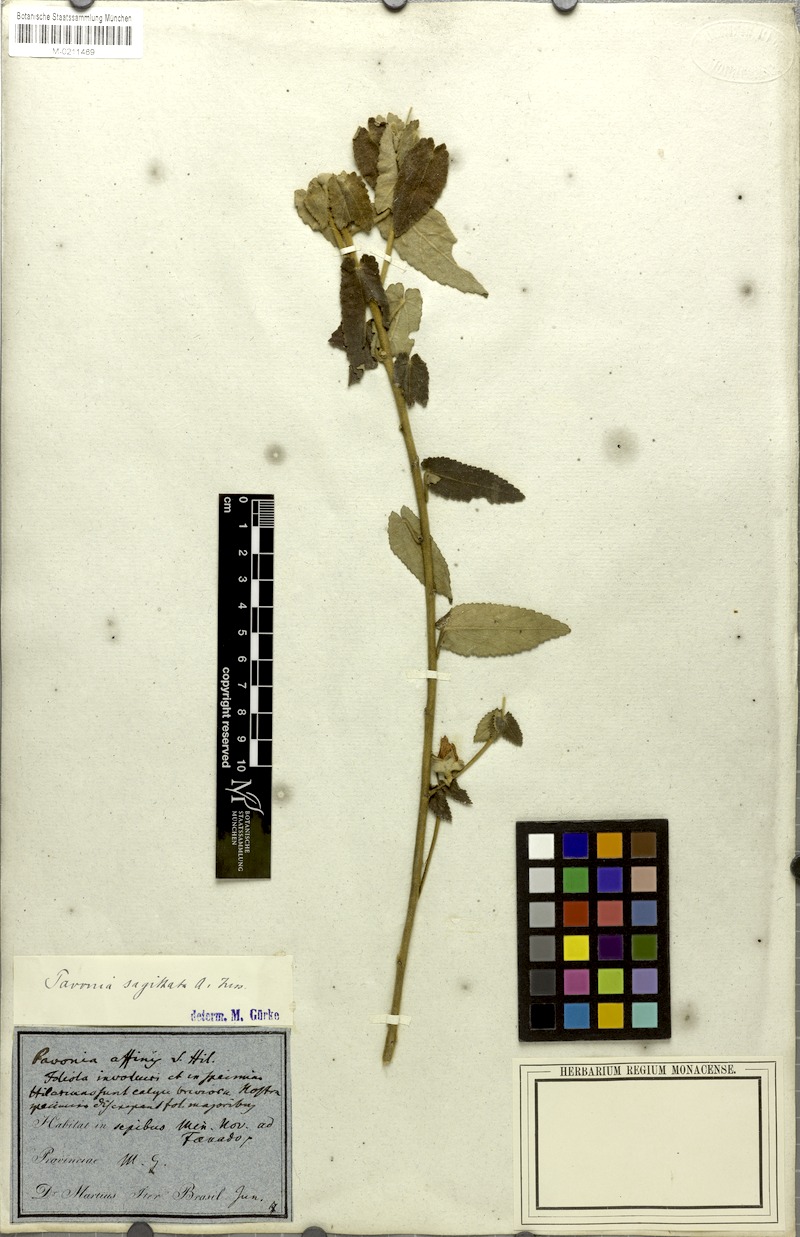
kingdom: Plantae
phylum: Tracheophyta
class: Magnoliopsida
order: Malvales
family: Malvaceae
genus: Pavonia
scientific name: Pavonia sagittata
